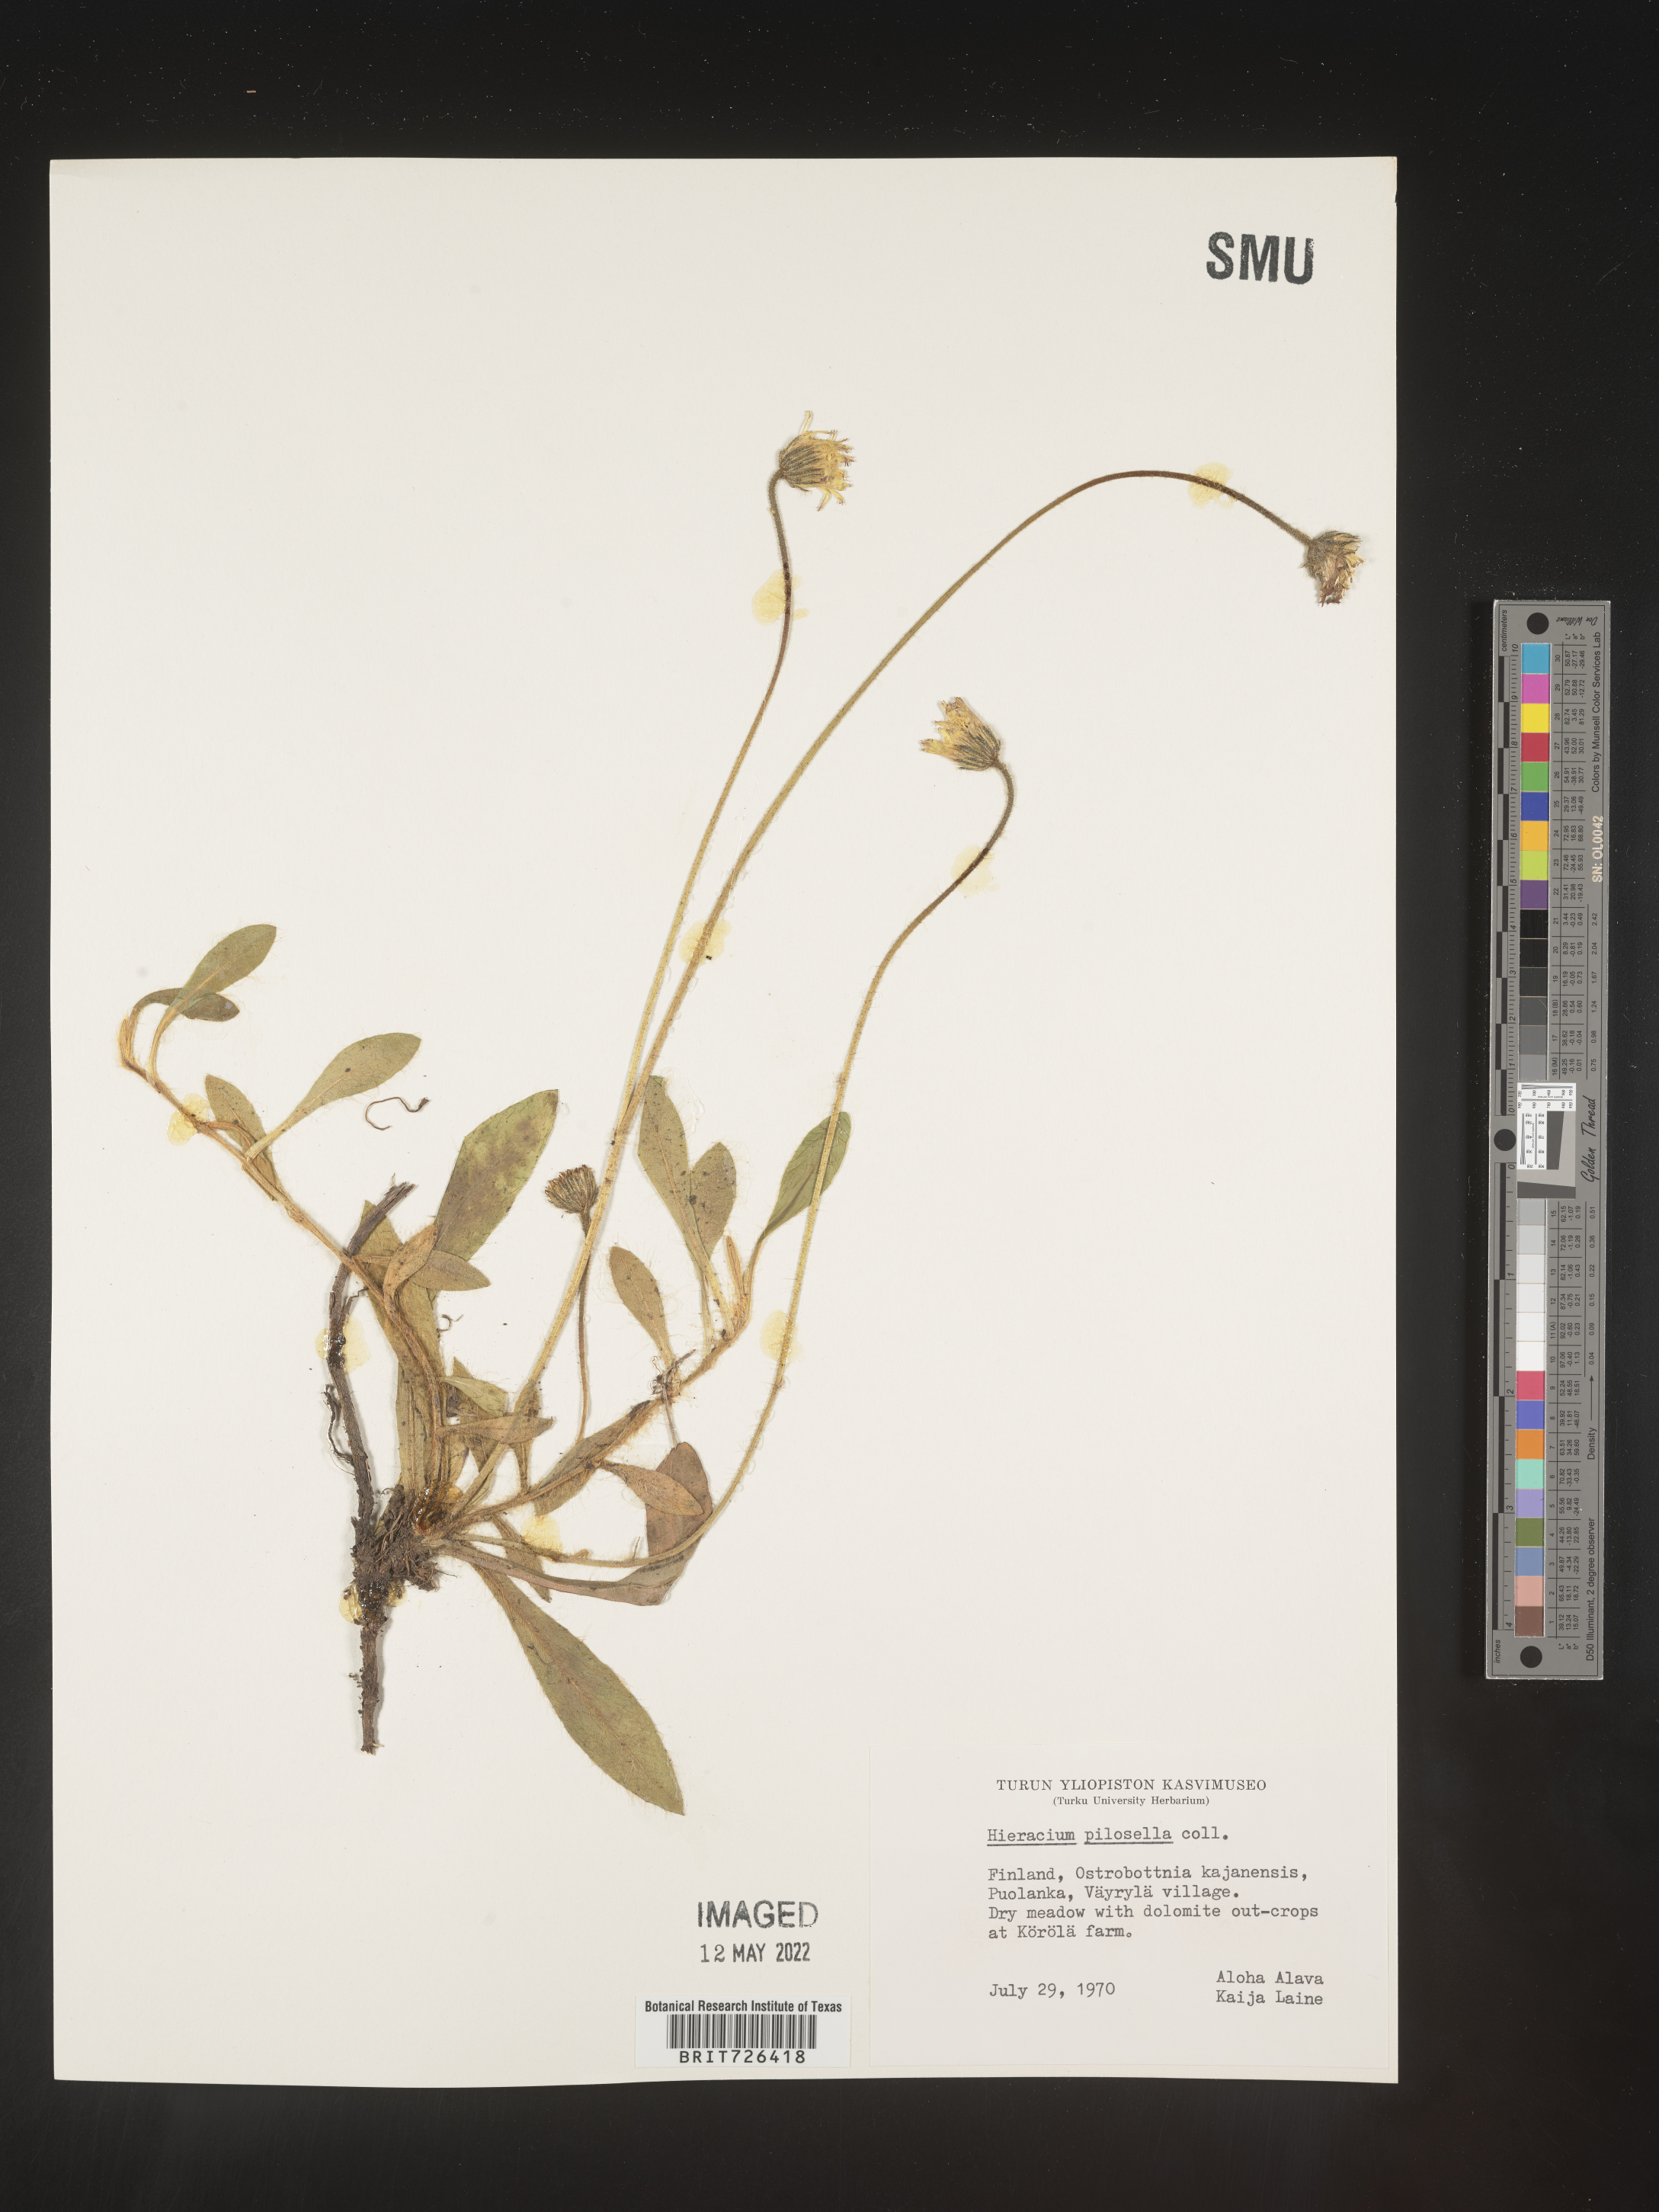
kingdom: Plantae
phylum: Tracheophyta
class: Magnoliopsida
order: Asterales
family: Asteraceae
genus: Hieracium
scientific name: Hieracium
